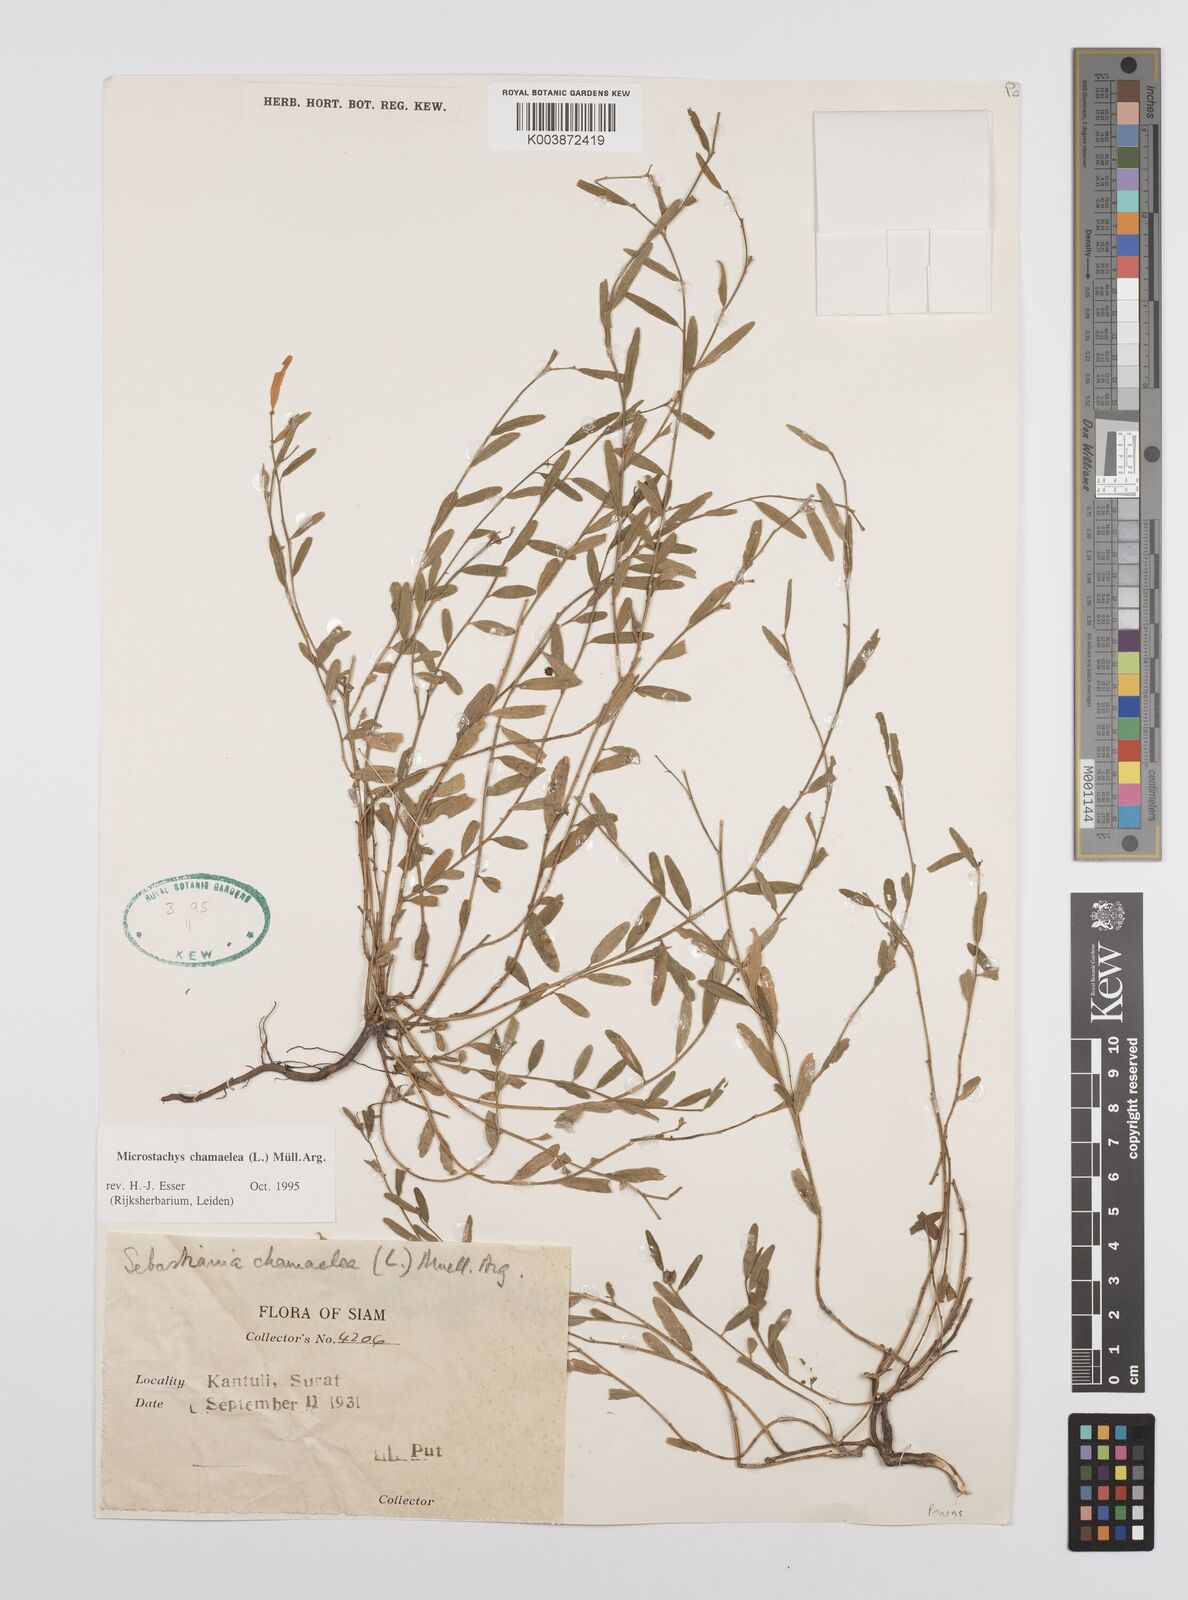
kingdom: Plantae
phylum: Tracheophyta
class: Magnoliopsida
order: Malpighiales
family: Euphorbiaceae
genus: Microstachys
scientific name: Microstachys chamaelea
